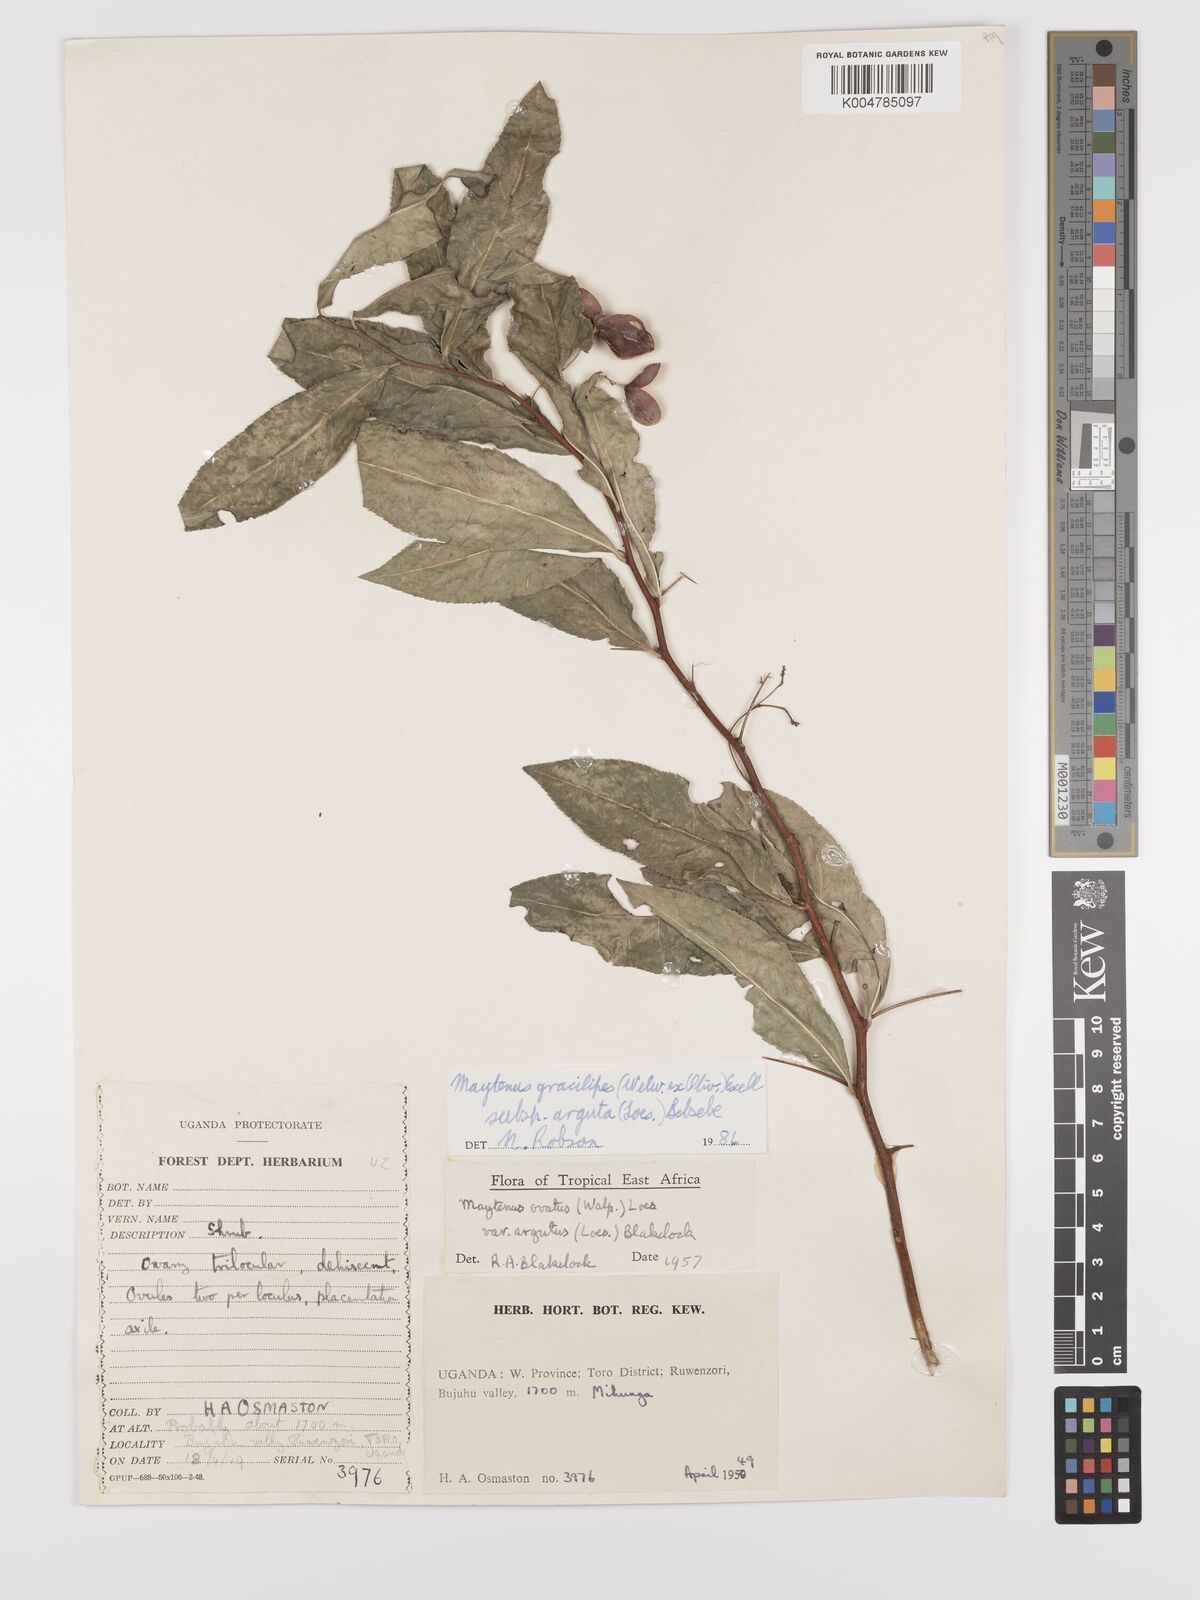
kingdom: Plantae
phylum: Tracheophyta
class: Magnoliopsida
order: Celastrales
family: Celastraceae
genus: Gymnosporia
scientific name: Gymnosporia gracilipes
